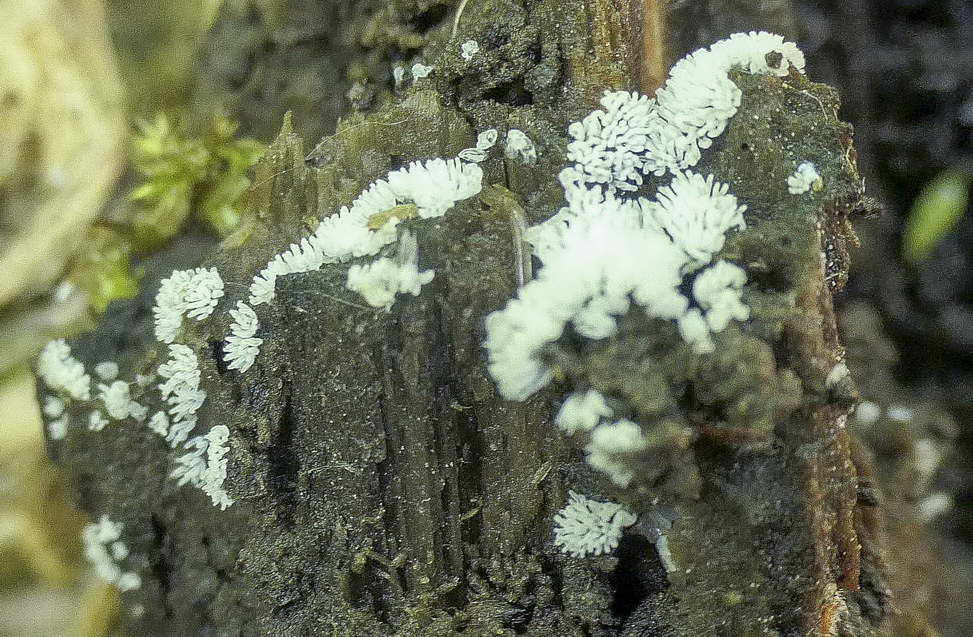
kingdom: Protozoa
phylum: Mycetozoa
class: Protosteliomycetes
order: Ceratiomyxales
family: Ceratiomyxaceae
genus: Ceratiomyxa
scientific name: Ceratiomyxa fruticulosa
